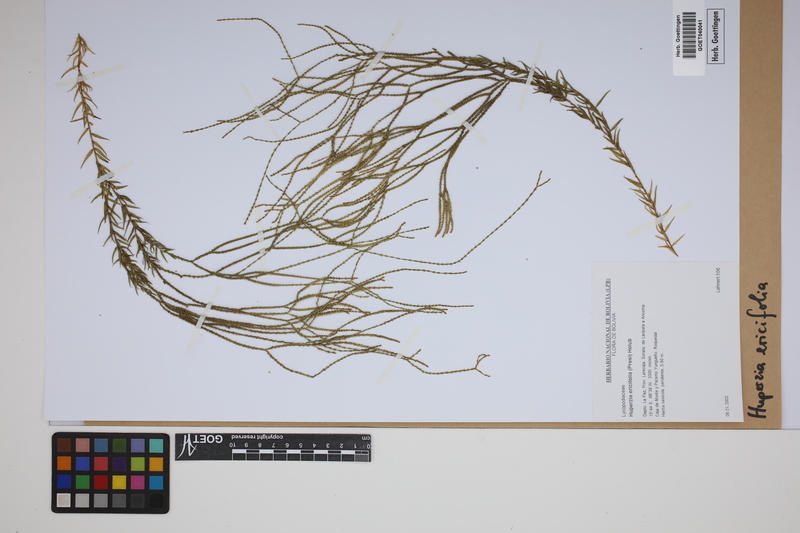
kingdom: Plantae
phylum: Tracheophyta
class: Lycopodiopsida
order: Lycopodiales
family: Lycopodiaceae
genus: Phlegmariurus
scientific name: Phlegmariurus ericifolius
